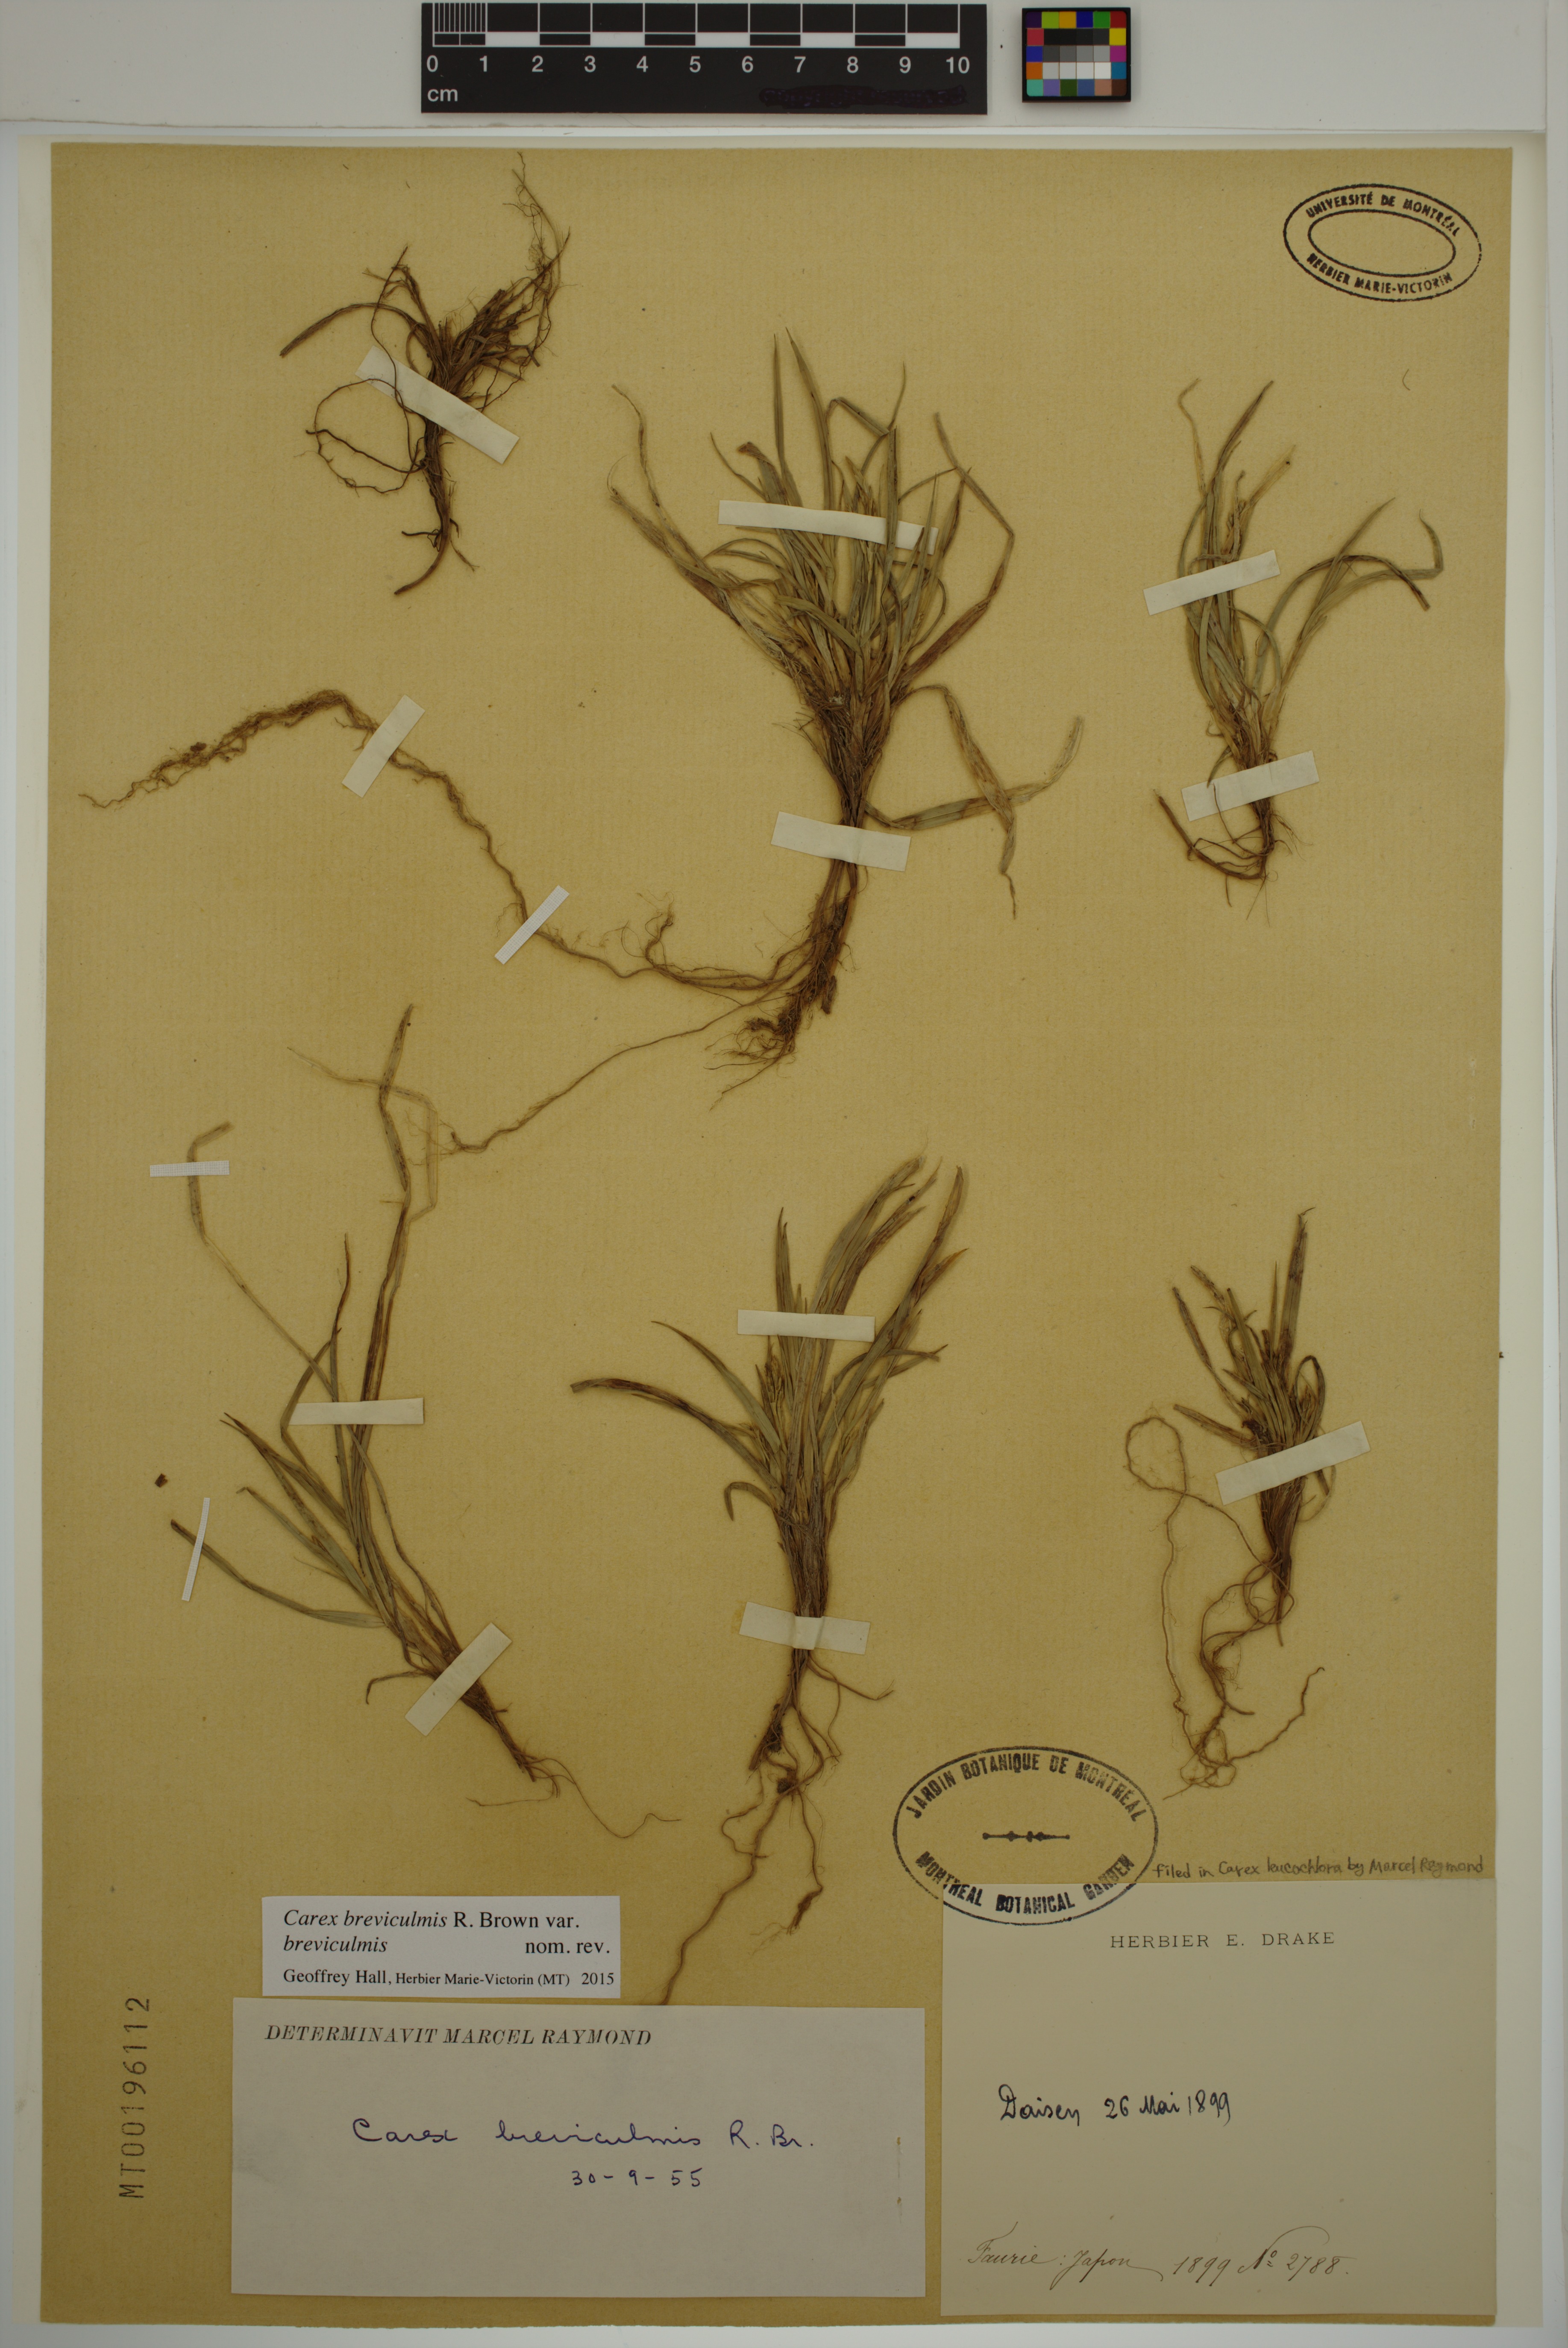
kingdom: Plantae
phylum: Tracheophyta
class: Liliopsida
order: Poales
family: Cyperaceae
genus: Carex
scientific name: Carex breviculmis
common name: Asian shortstem sedge
